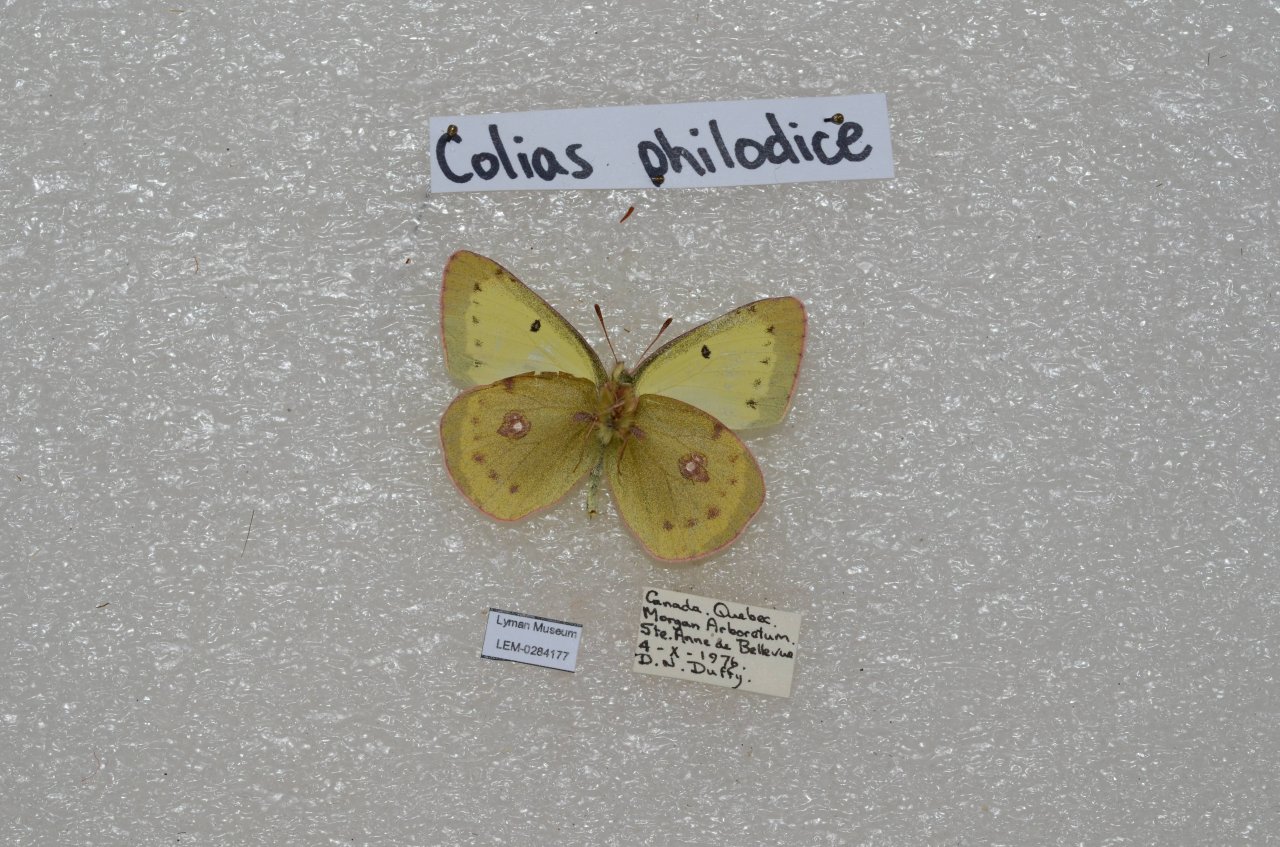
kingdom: Animalia
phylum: Arthropoda
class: Insecta
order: Lepidoptera
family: Pieridae
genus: Colias
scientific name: Colias philodice
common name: Clouded Sulphur
